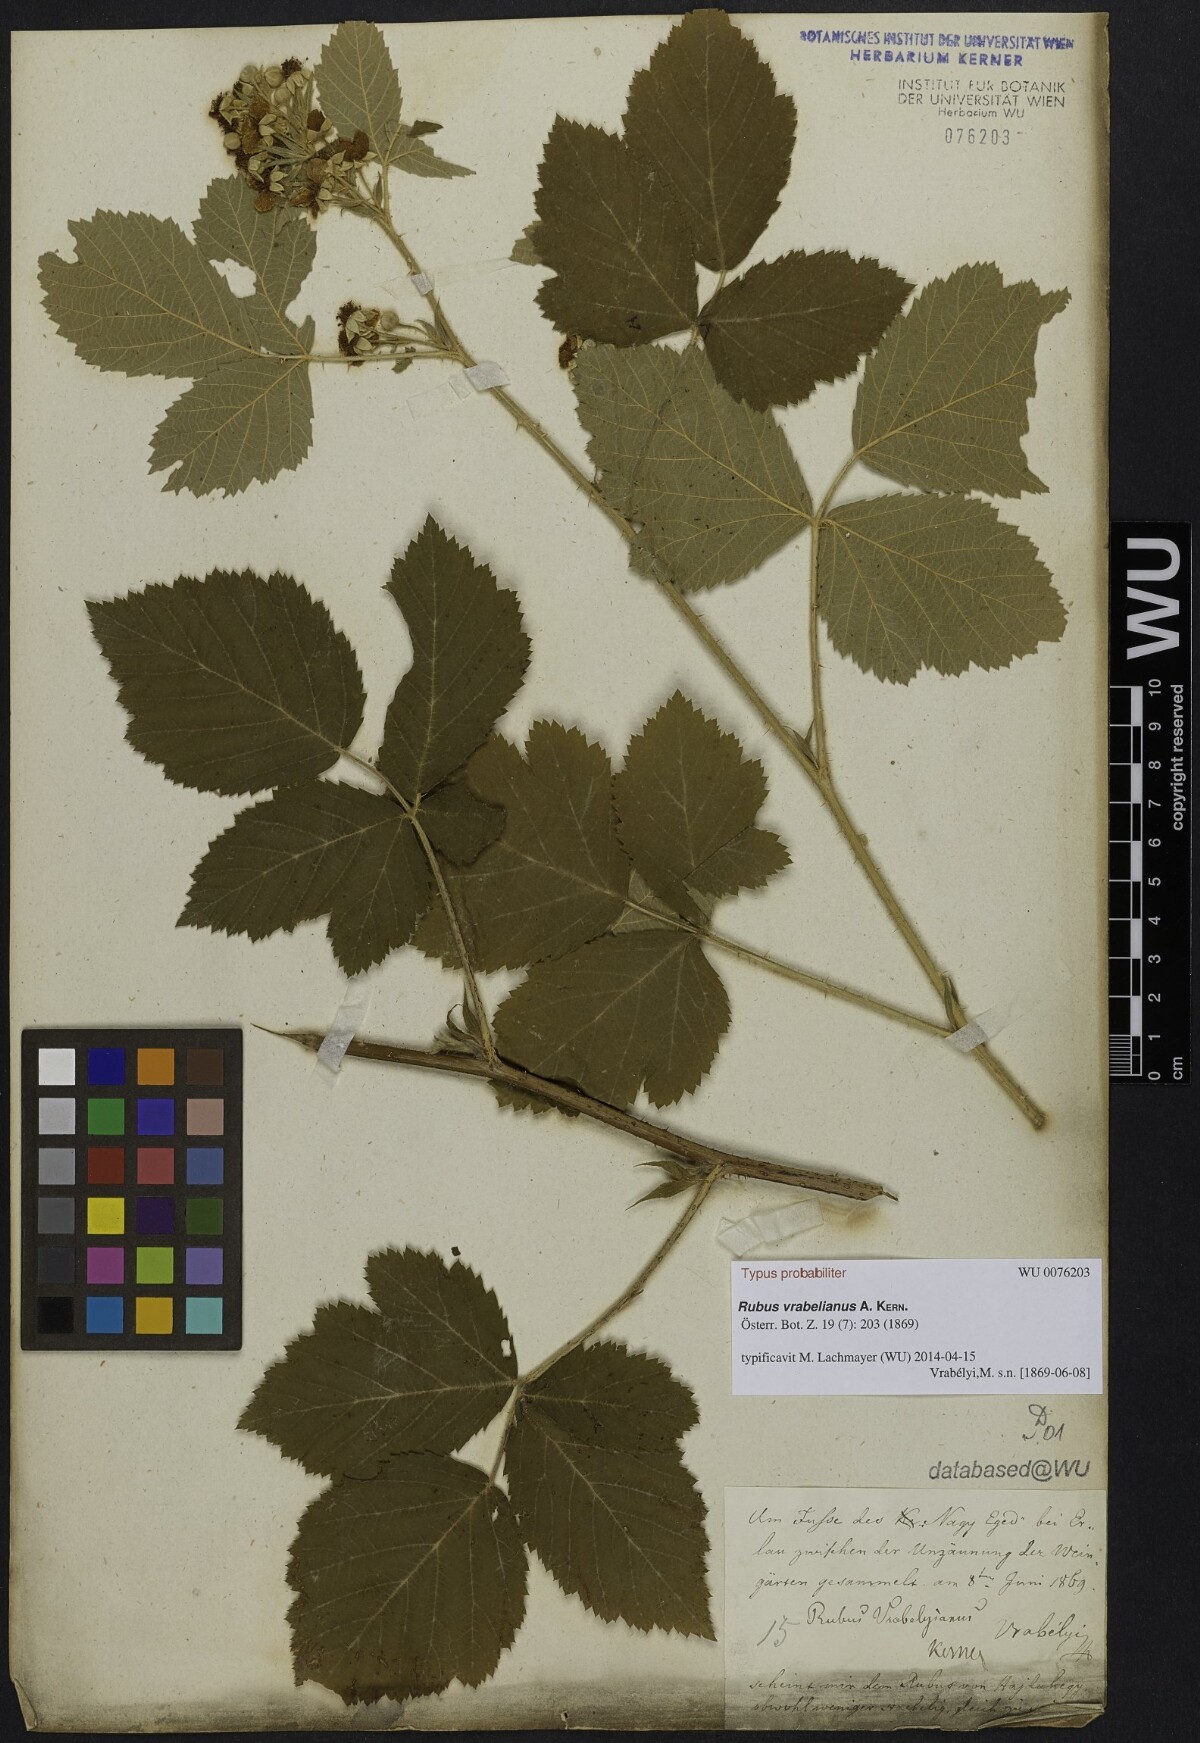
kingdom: Plantae
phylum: Tracheophyta
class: Magnoliopsida
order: Rosales
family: Rosaceae
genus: Rubus
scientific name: Rubus vrabelianus
